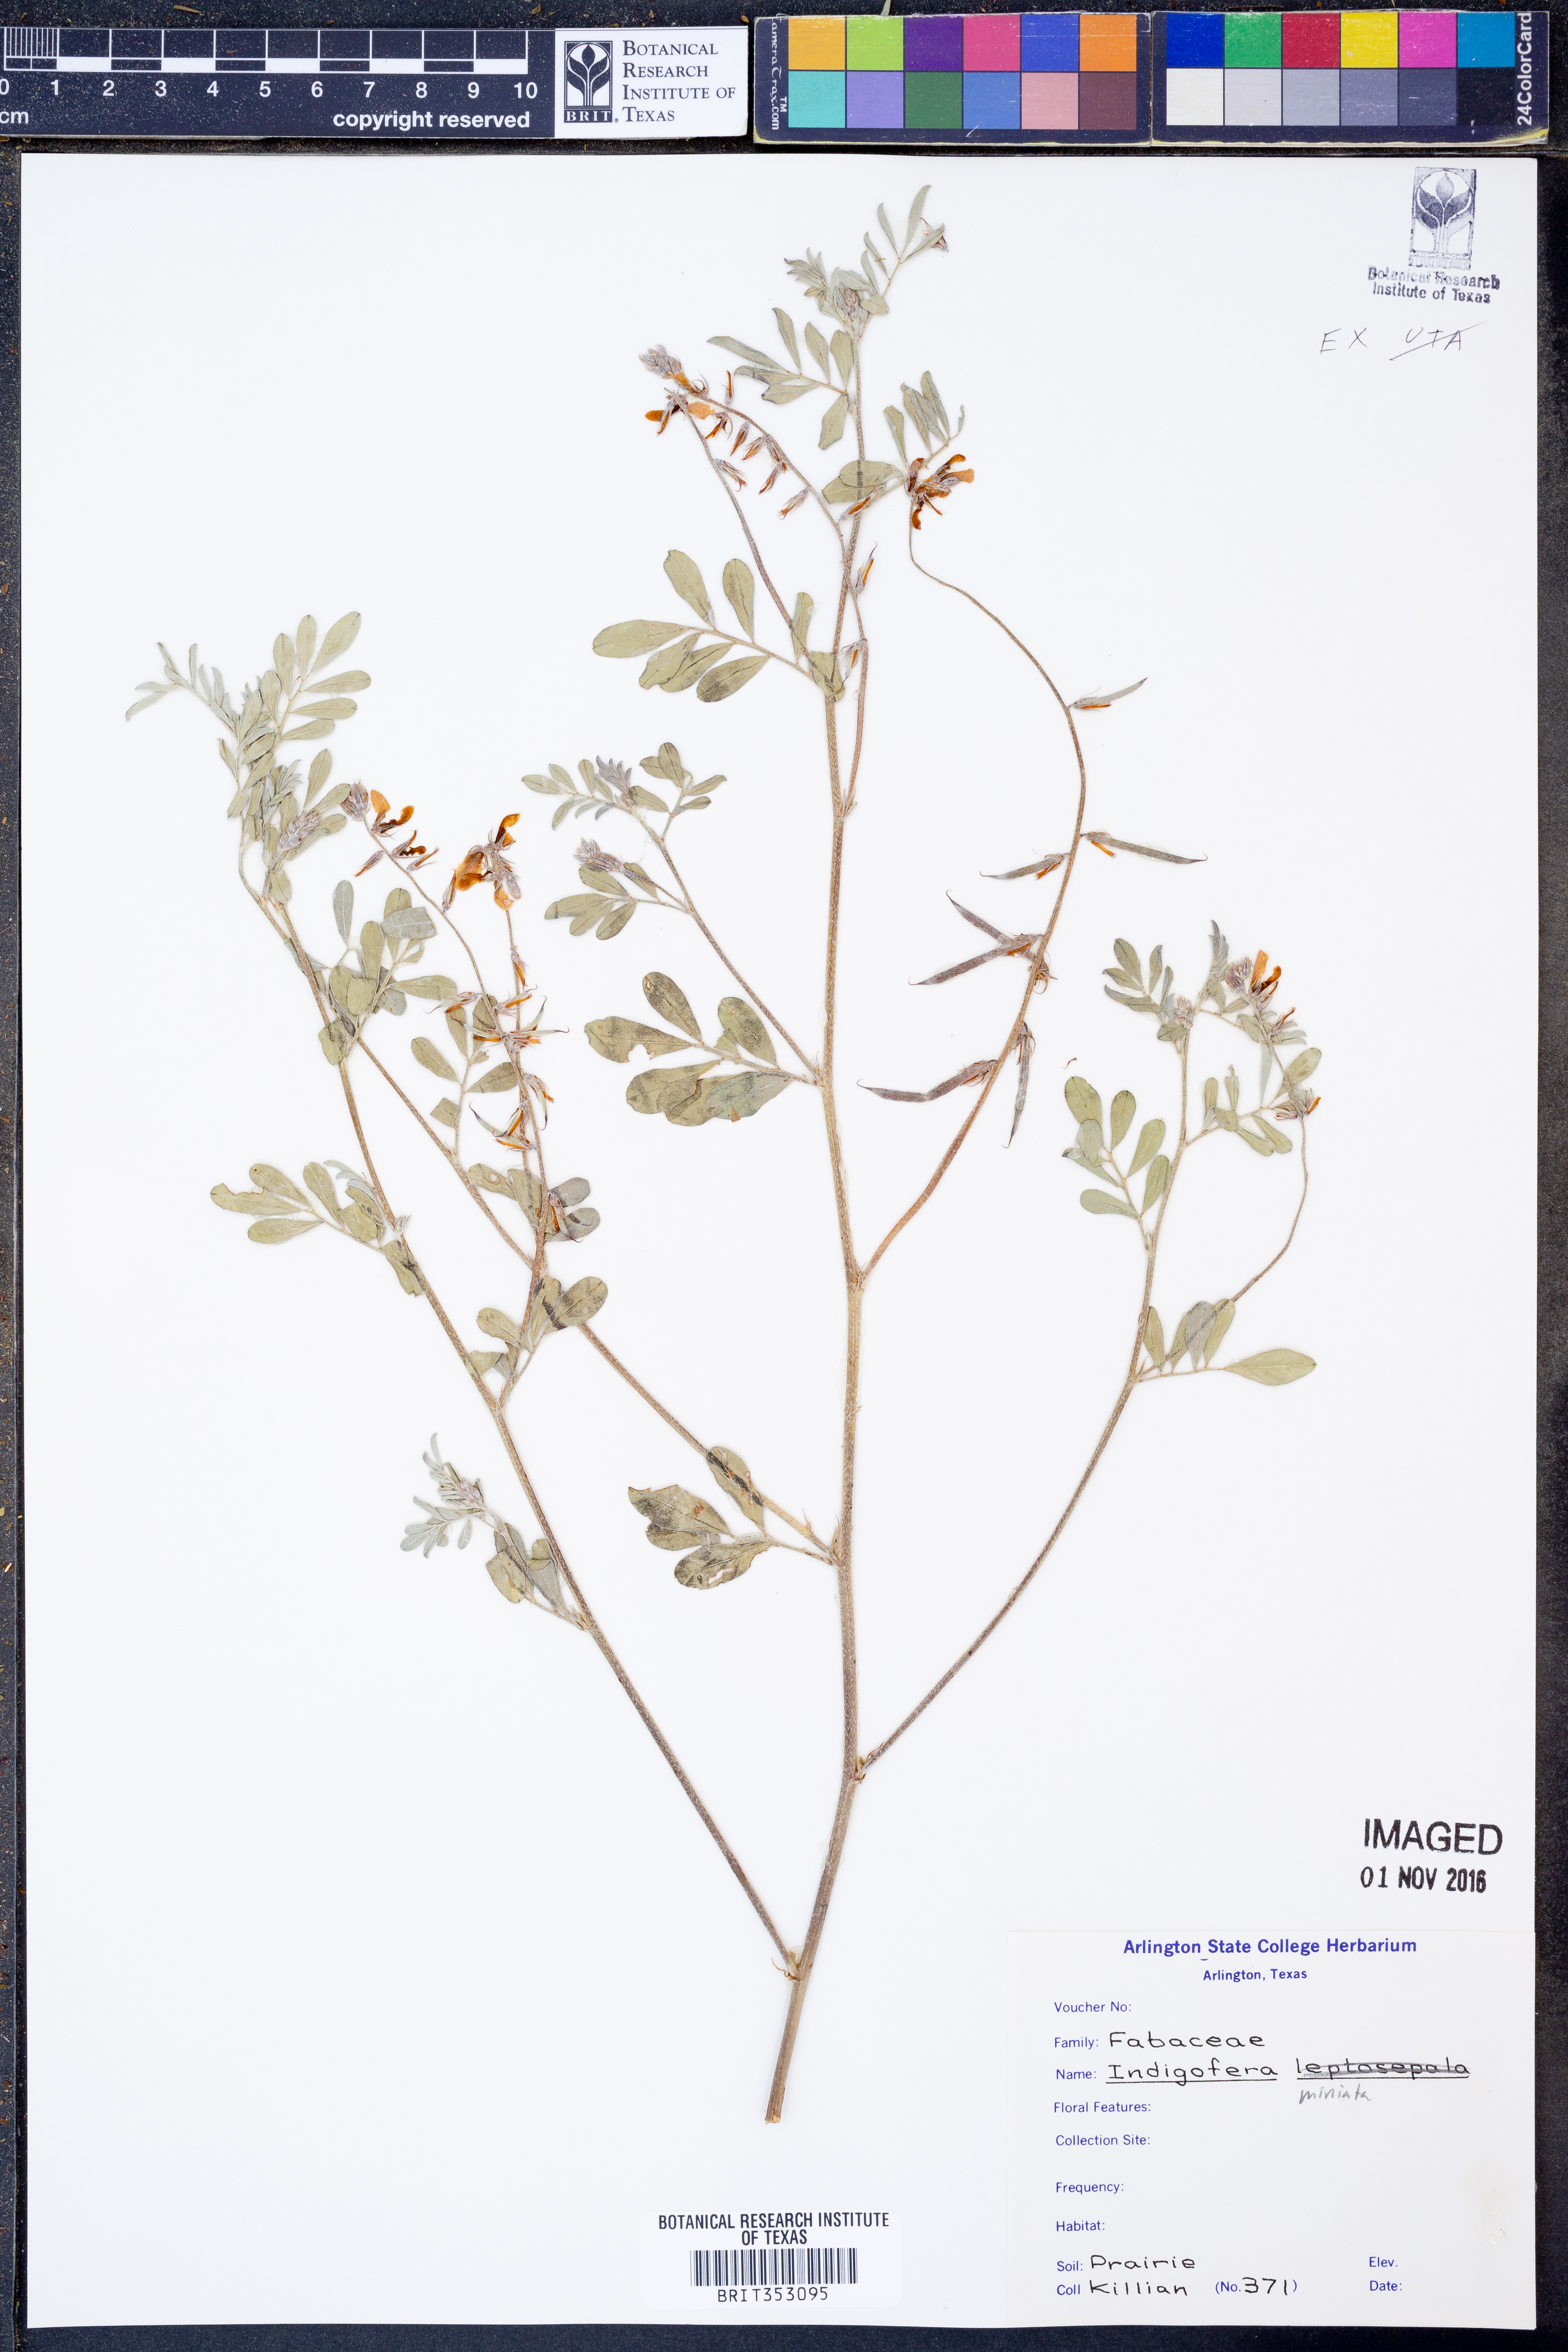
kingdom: Plantae
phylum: Tracheophyta
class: Magnoliopsida
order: Fabales
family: Fabaceae
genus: Indigofera
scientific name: Indigofera miniata
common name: Coast indigo
